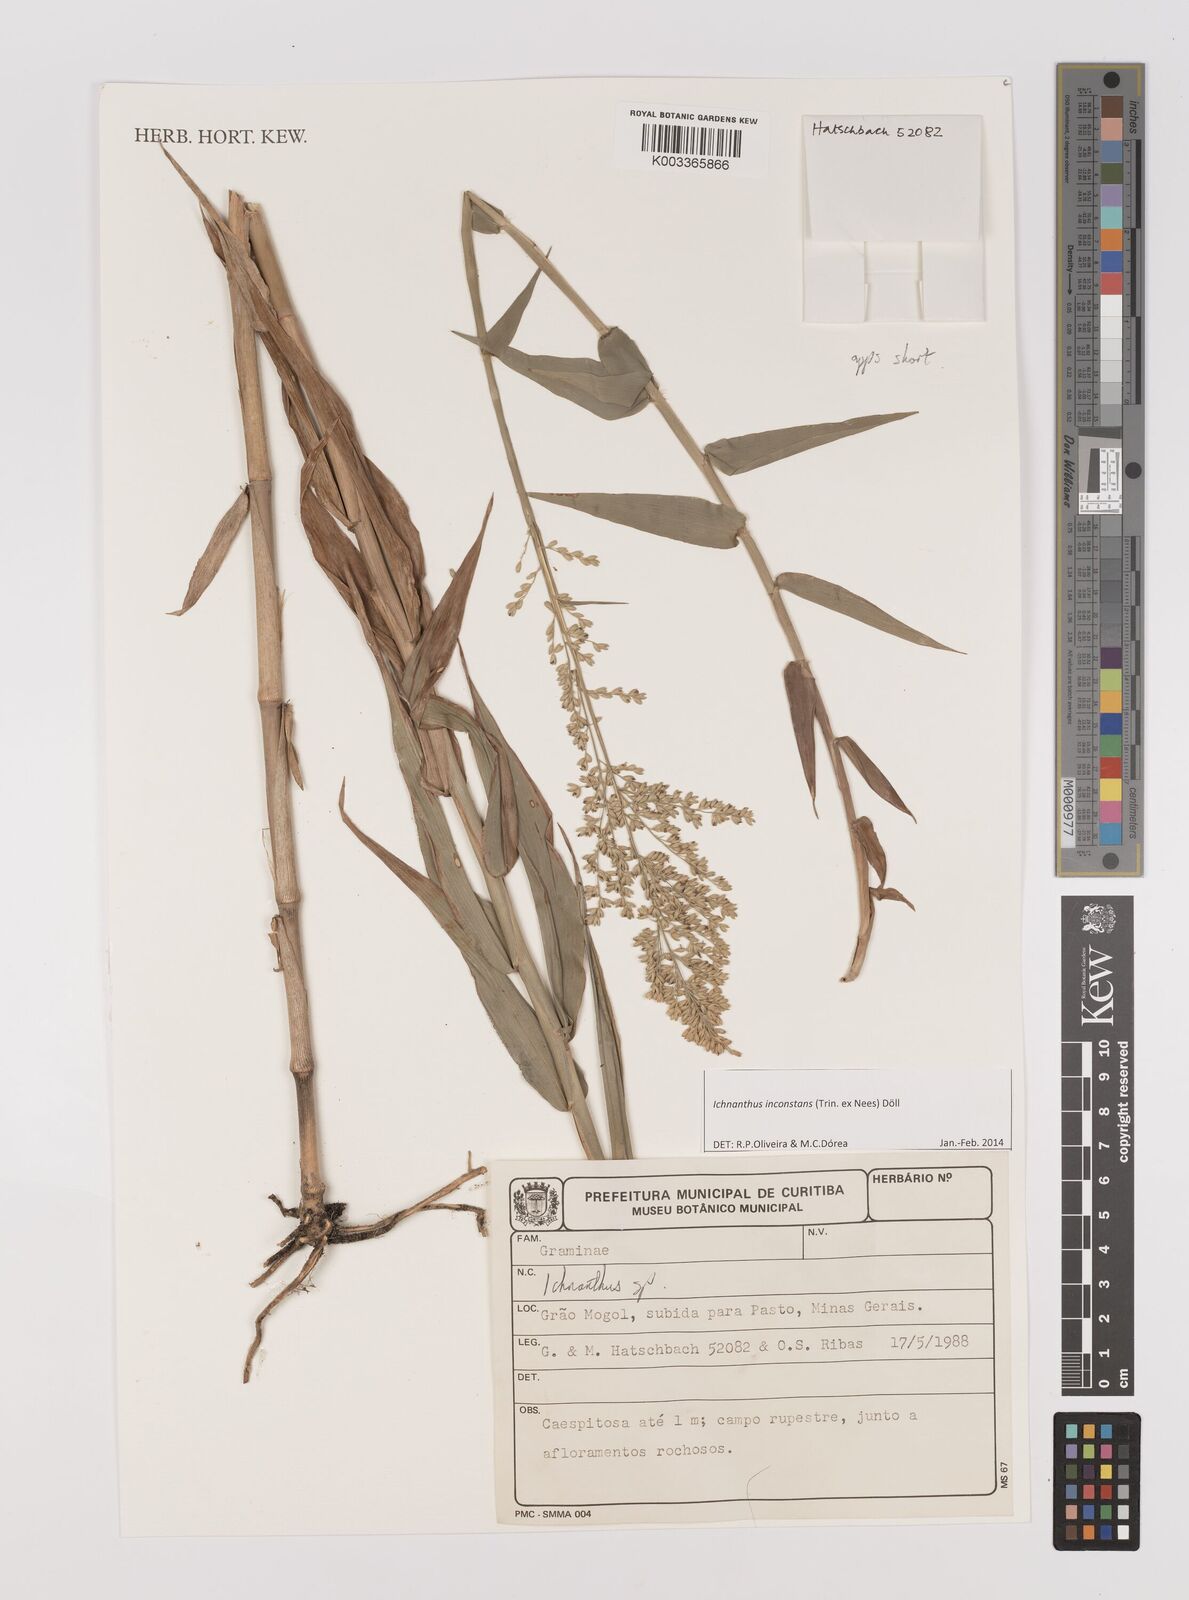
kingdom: Plantae
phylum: Tracheophyta
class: Liliopsida
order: Poales
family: Poaceae
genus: Ichnanthus
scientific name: Ichnanthus inconstans
